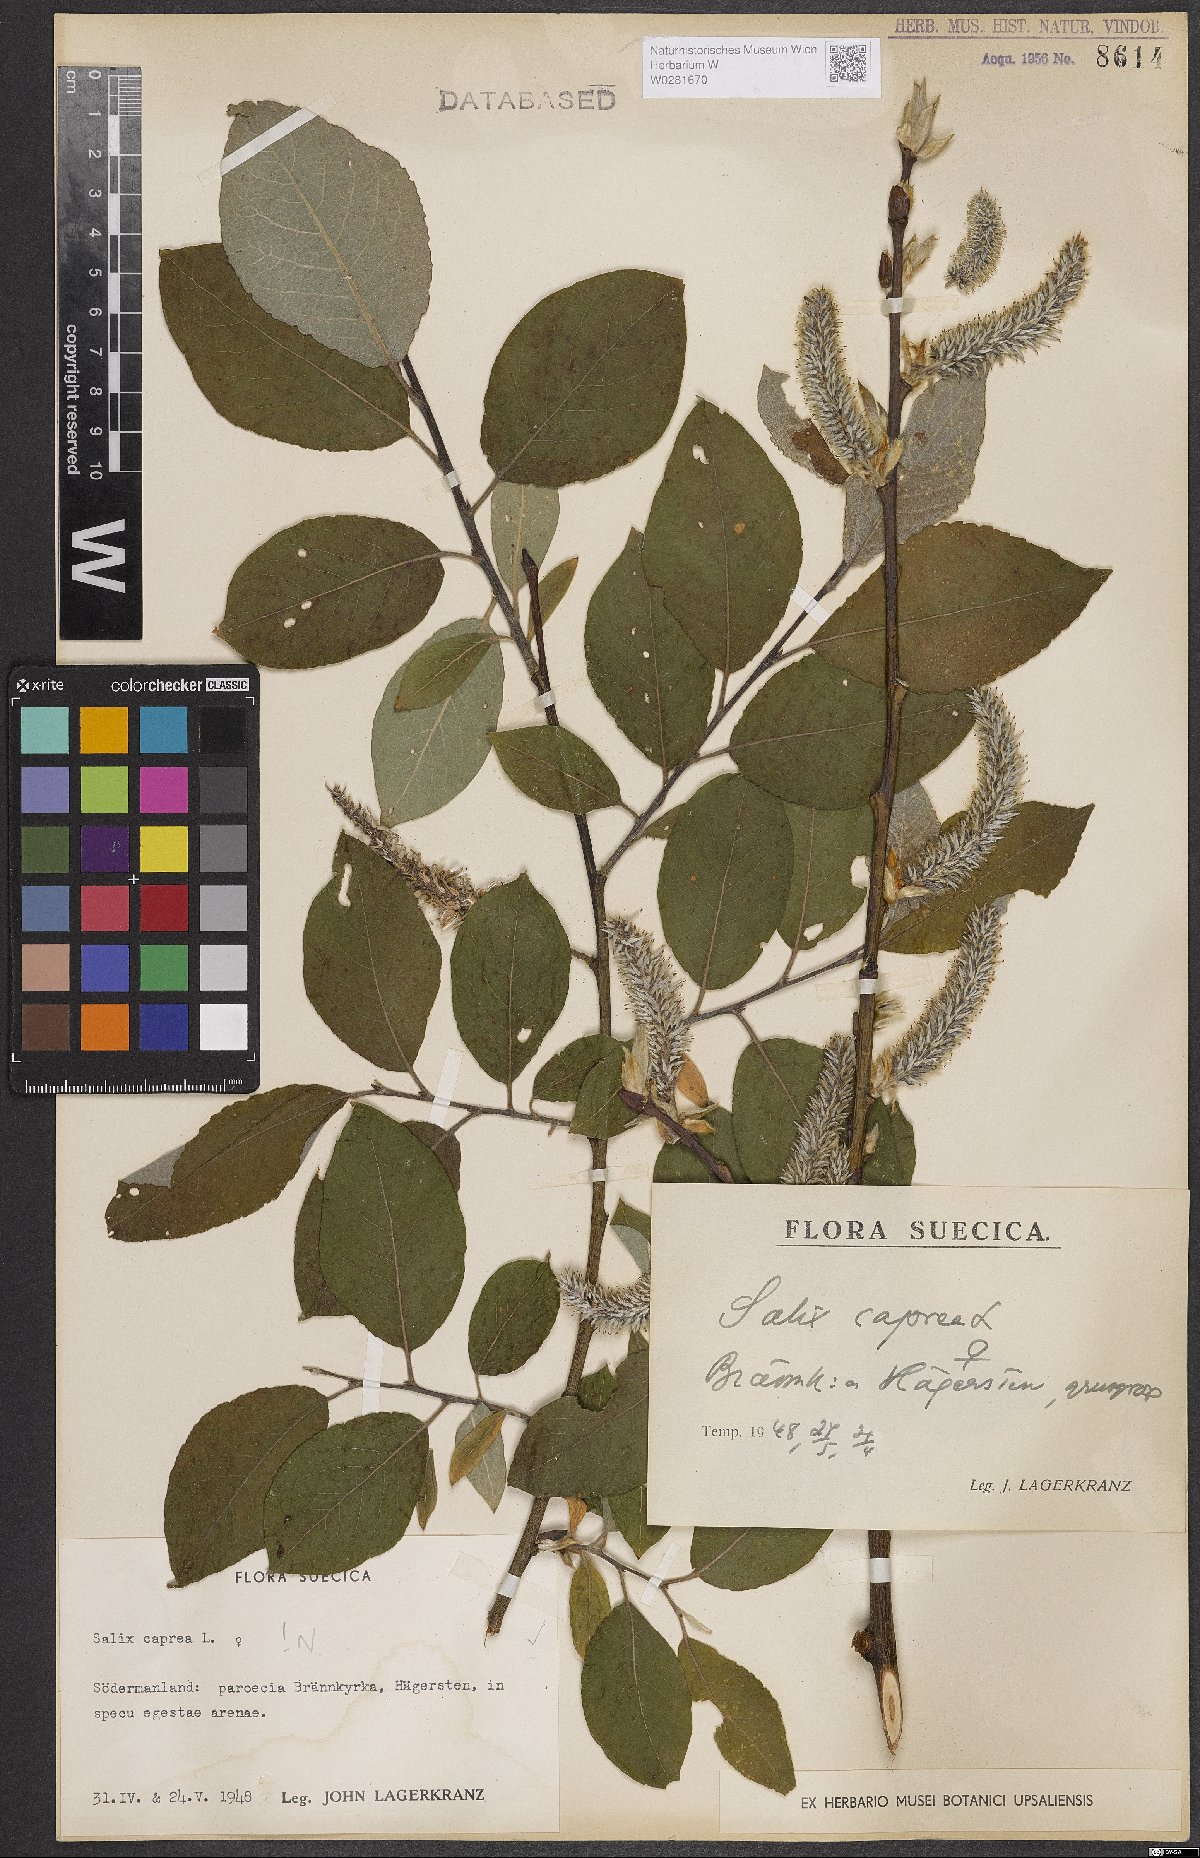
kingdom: Plantae
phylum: Tracheophyta
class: Magnoliopsida
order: Malpighiales
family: Salicaceae
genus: Salix
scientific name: Salix caprea
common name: Goat willow
